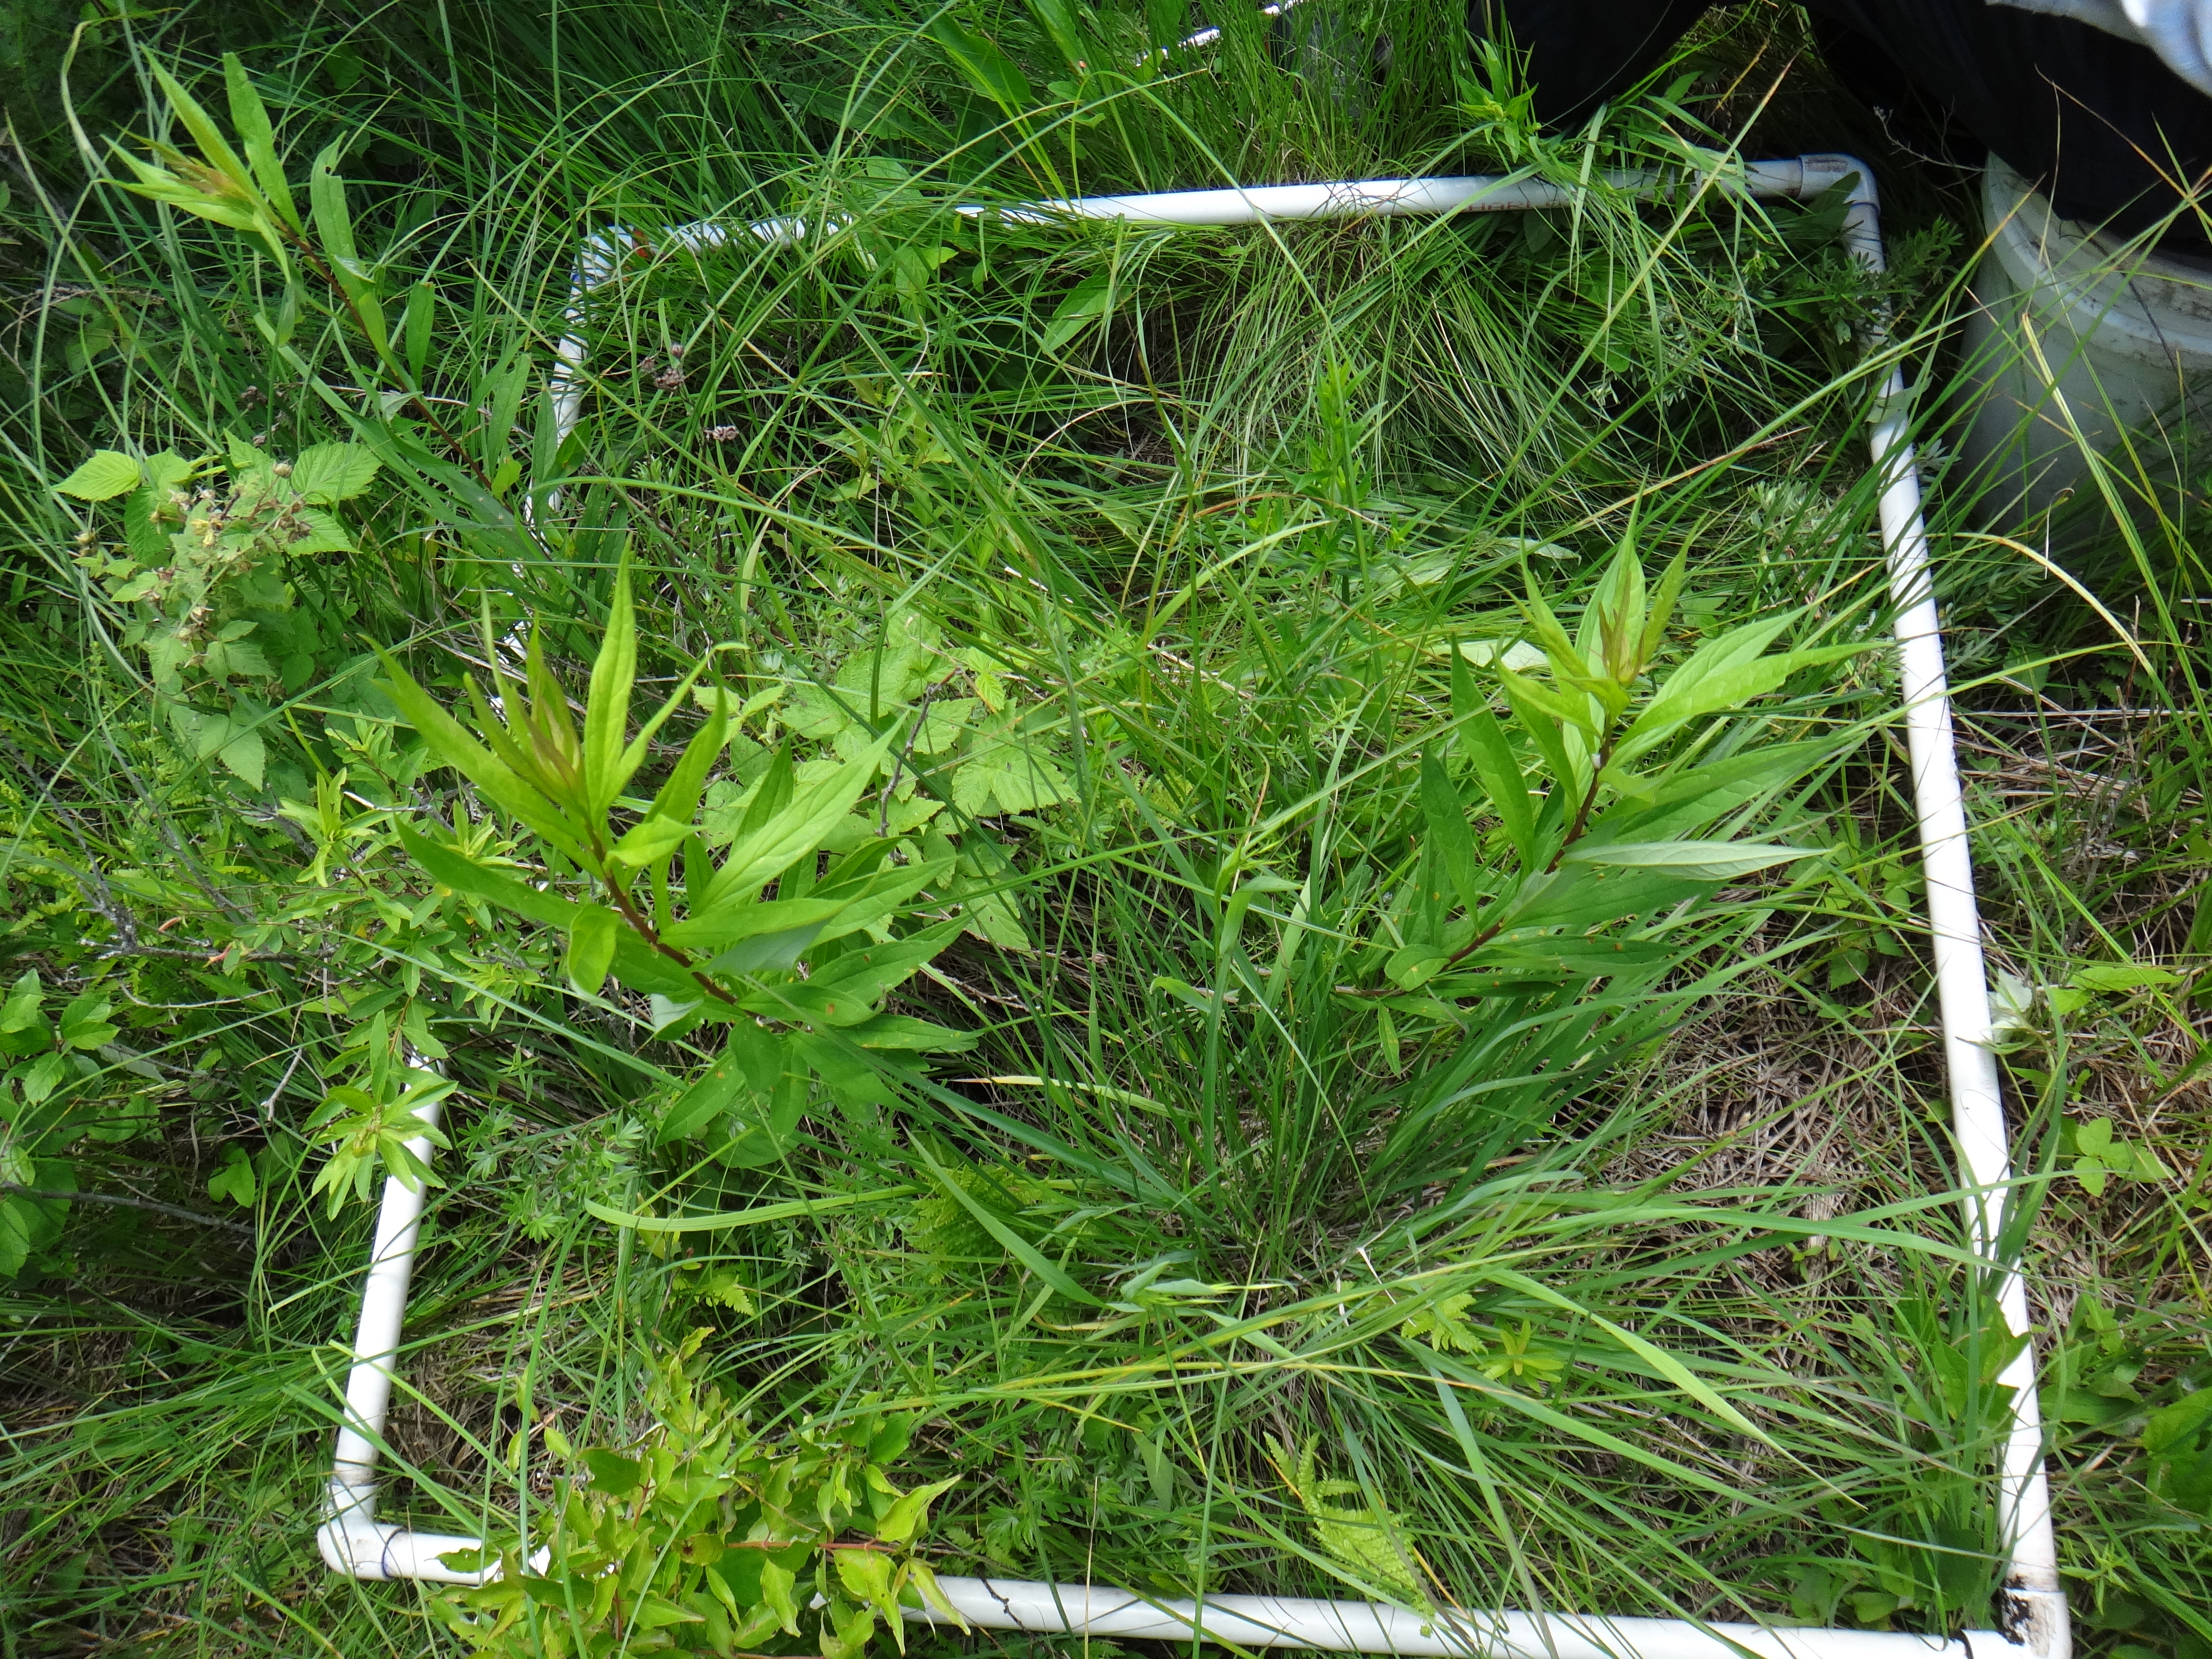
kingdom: Plantae
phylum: Tracheophyta
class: Magnoliopsida
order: Rosales
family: Rhamnaceae
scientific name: Rhamnaceae
